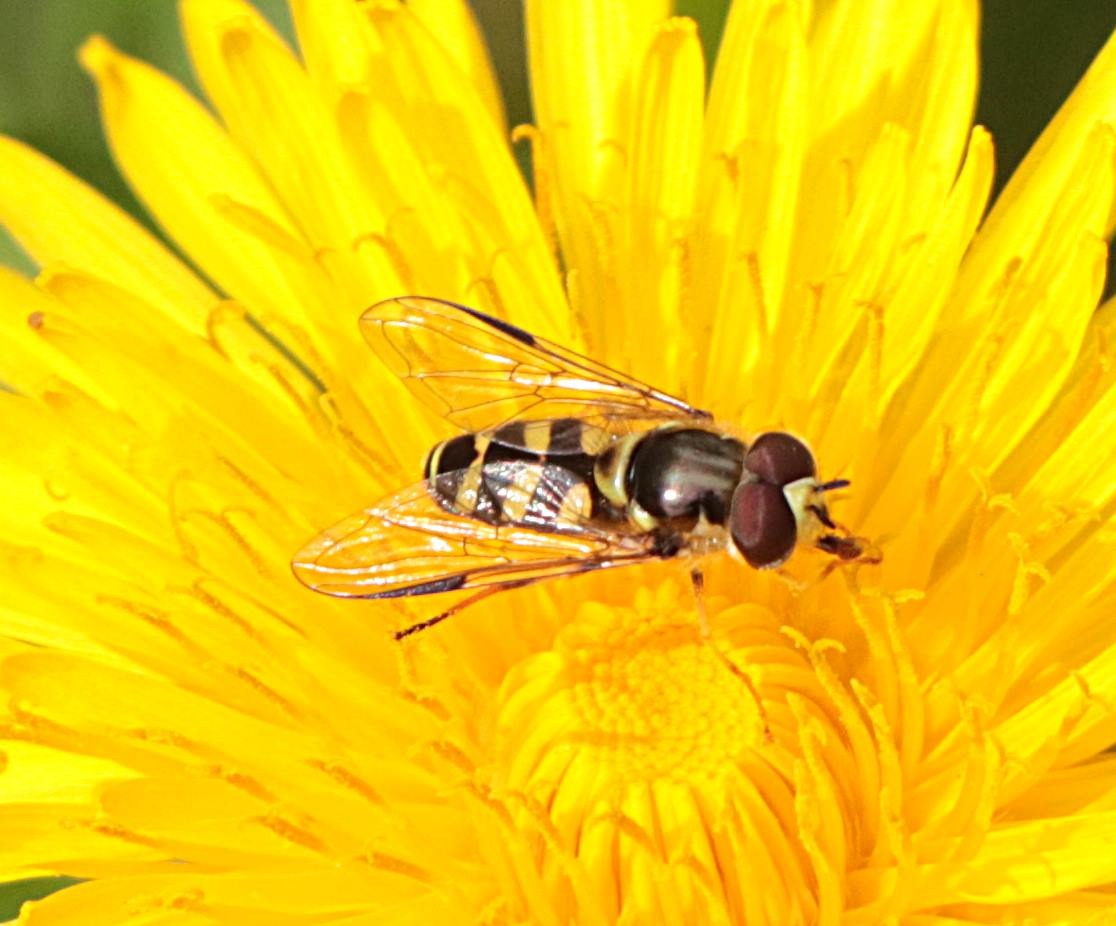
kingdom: Animalia
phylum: Arthropoda
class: Insecta
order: Diptera
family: Syrphidae
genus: Dasysyrphus
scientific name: Dasysyrphus albostriatus
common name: Stribet skovsvirreflue
